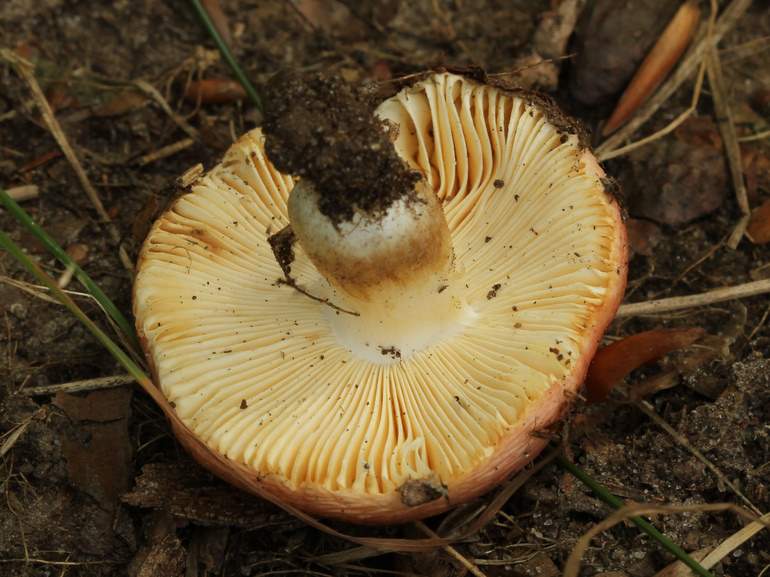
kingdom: Fungi
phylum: Basidiomycota
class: Agaricomycetes
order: Russulales
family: Russulaceae
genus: Russula
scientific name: Russula maculata
